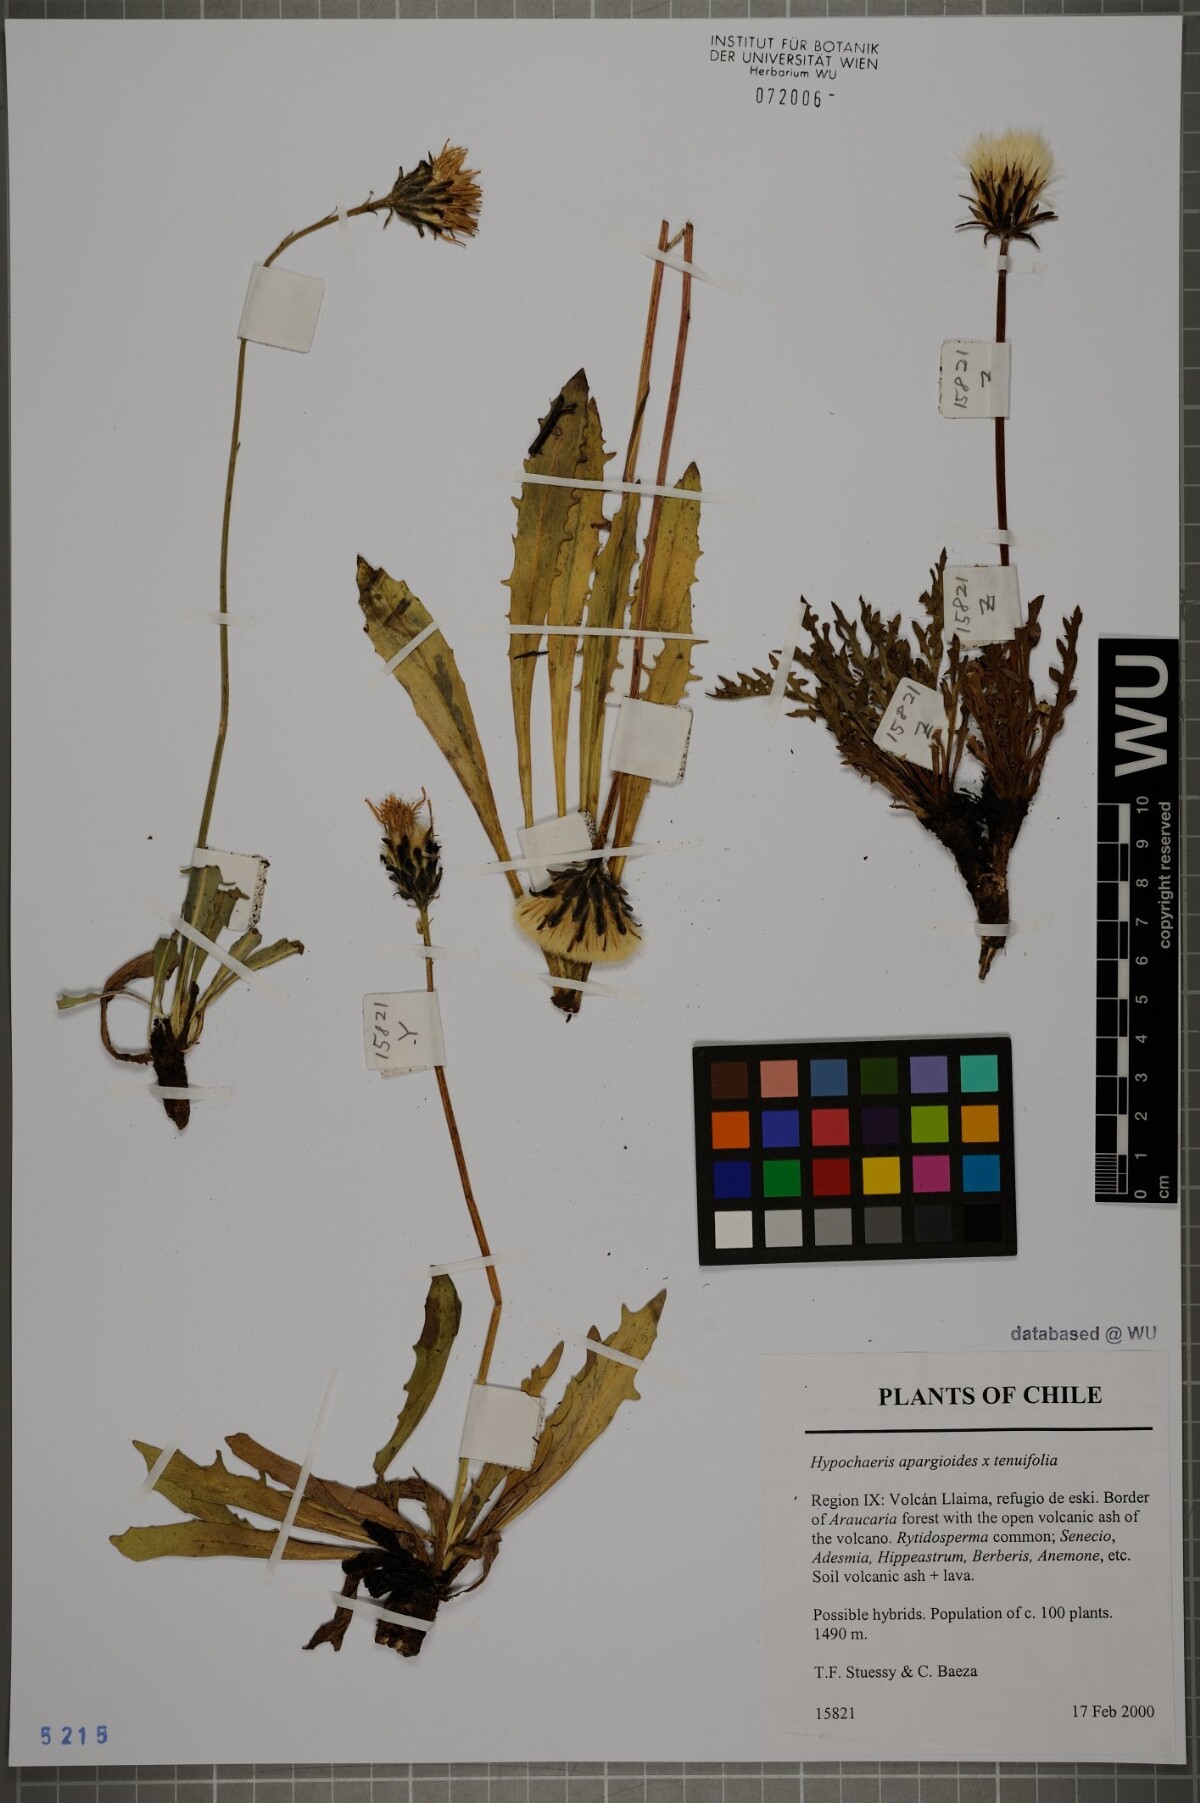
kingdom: Plantae
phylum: Tracheophyta
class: Magnoliopsida
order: Asterales
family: Asteraceae
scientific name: Asteraceae
